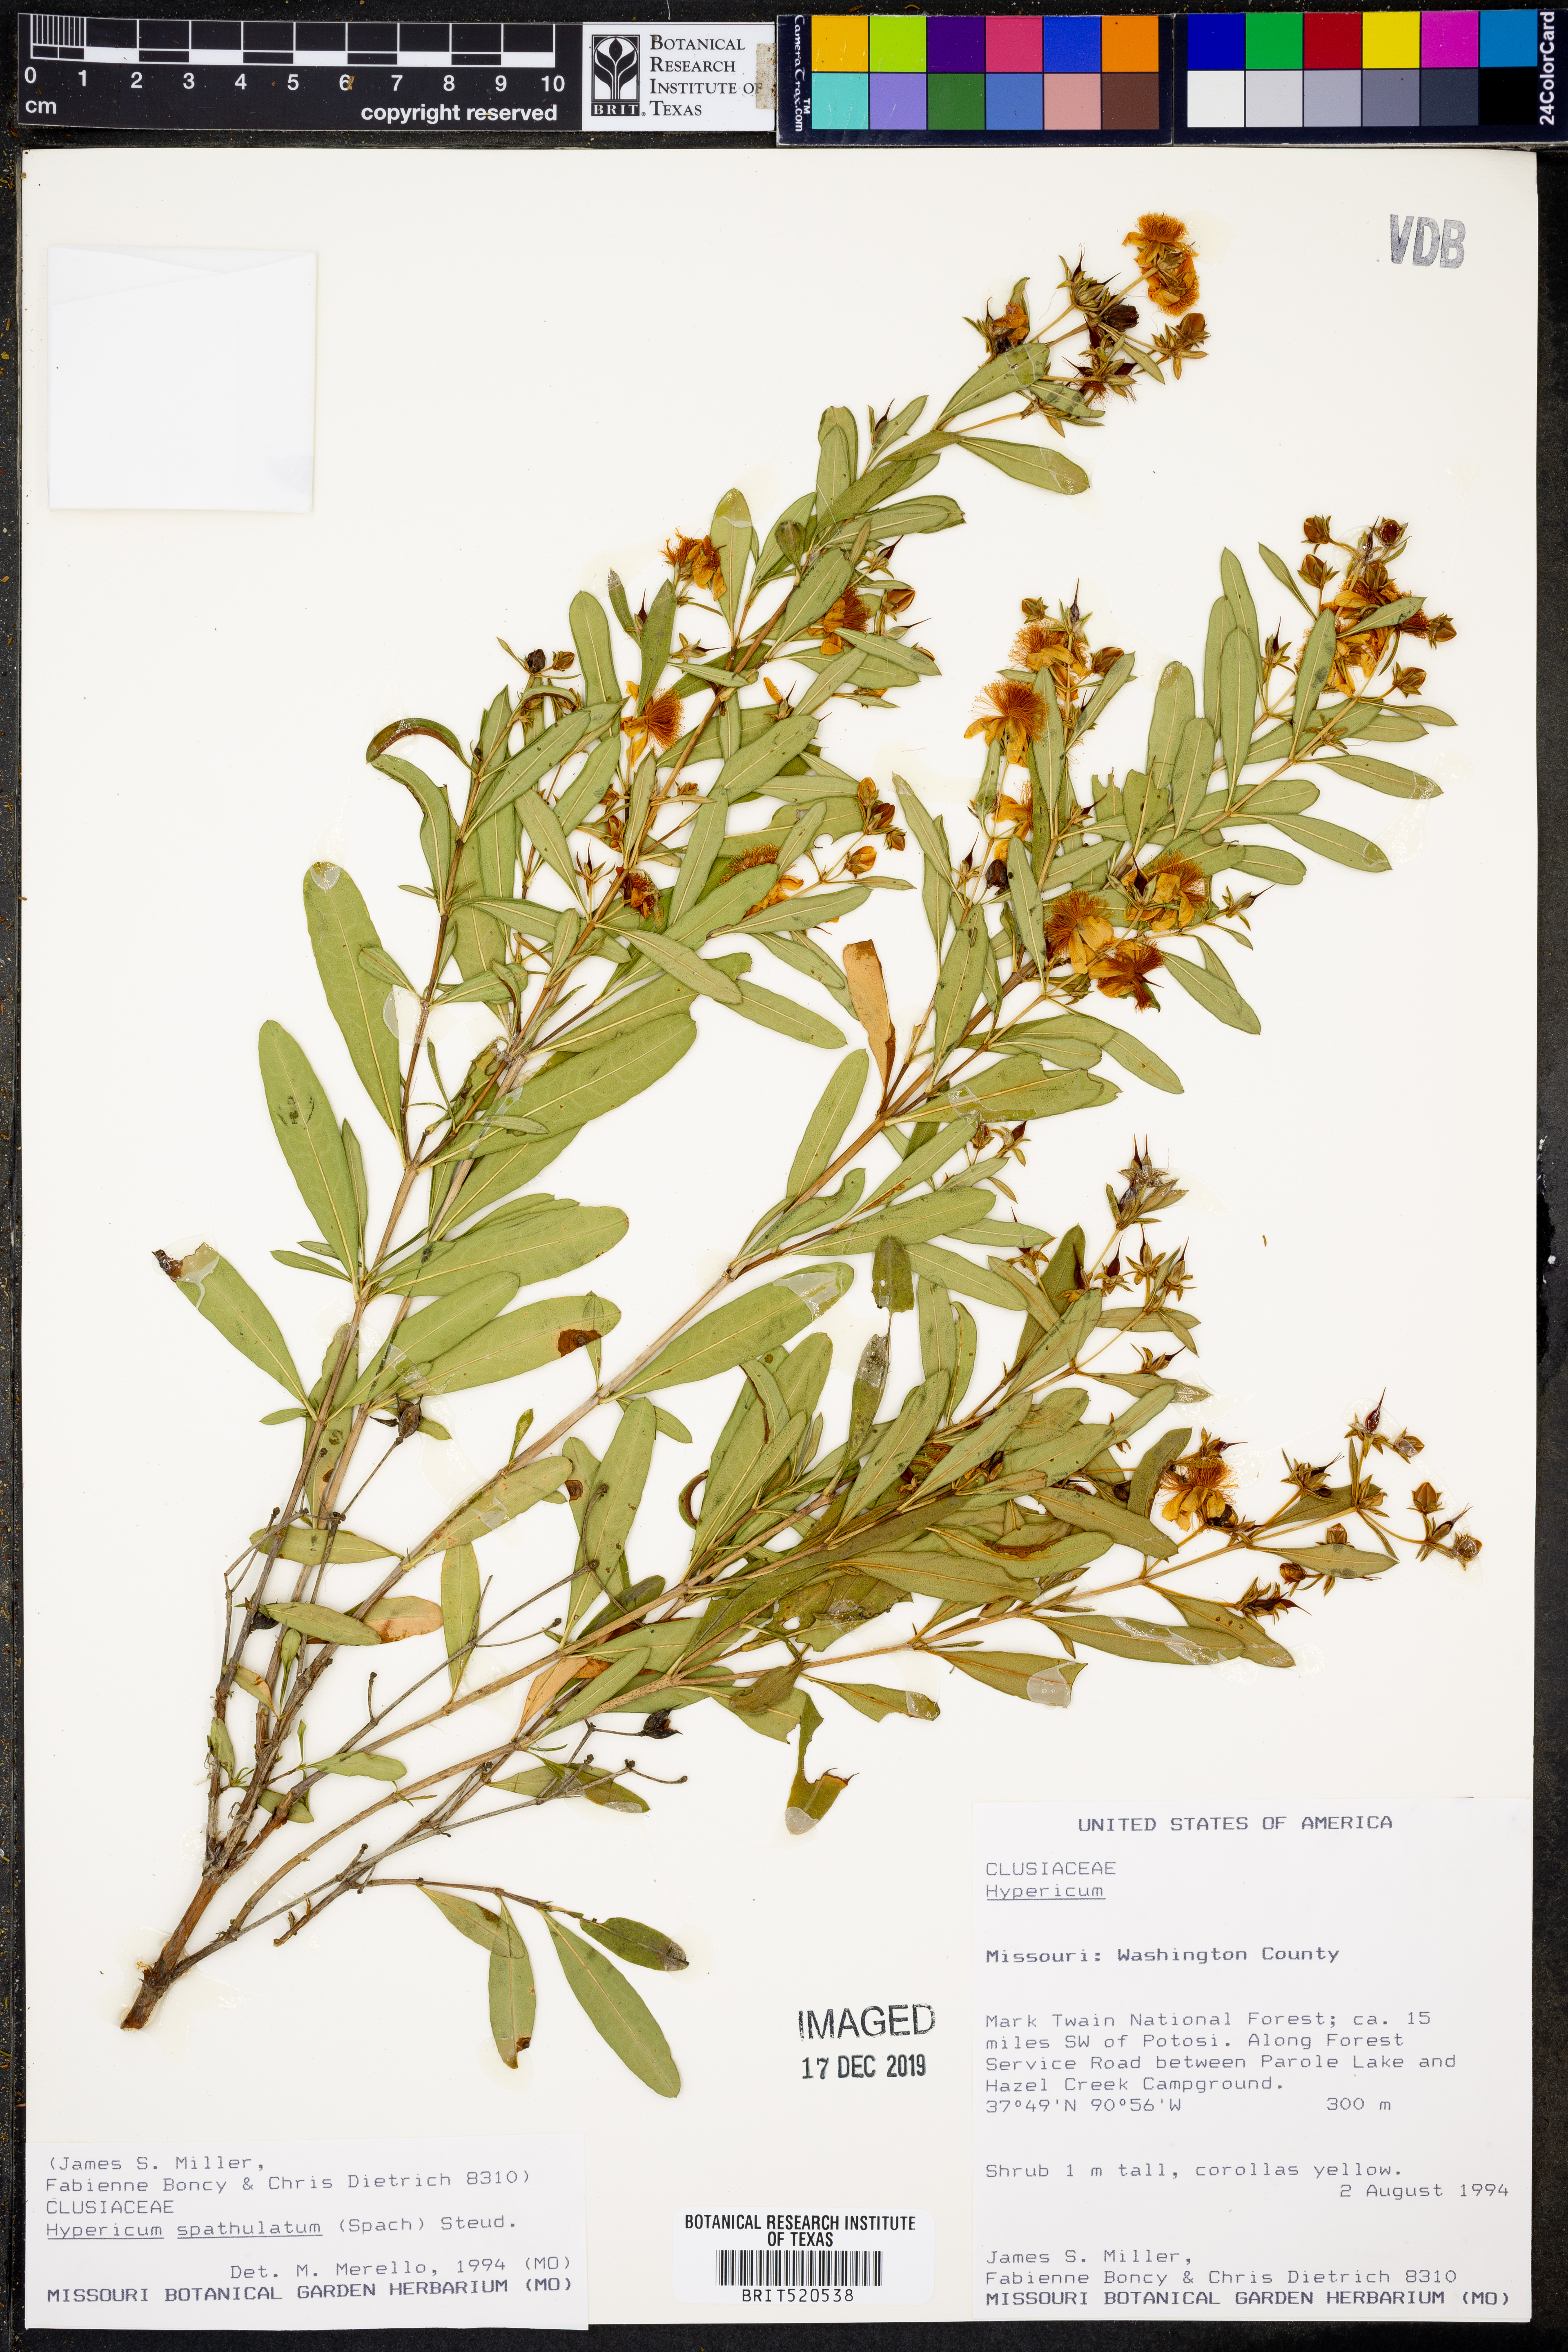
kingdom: Plantae
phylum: Tracheophyta
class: Magnoliopsida
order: Malpighiales
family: Hypericaceae
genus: Hypericum
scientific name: Hypericum
